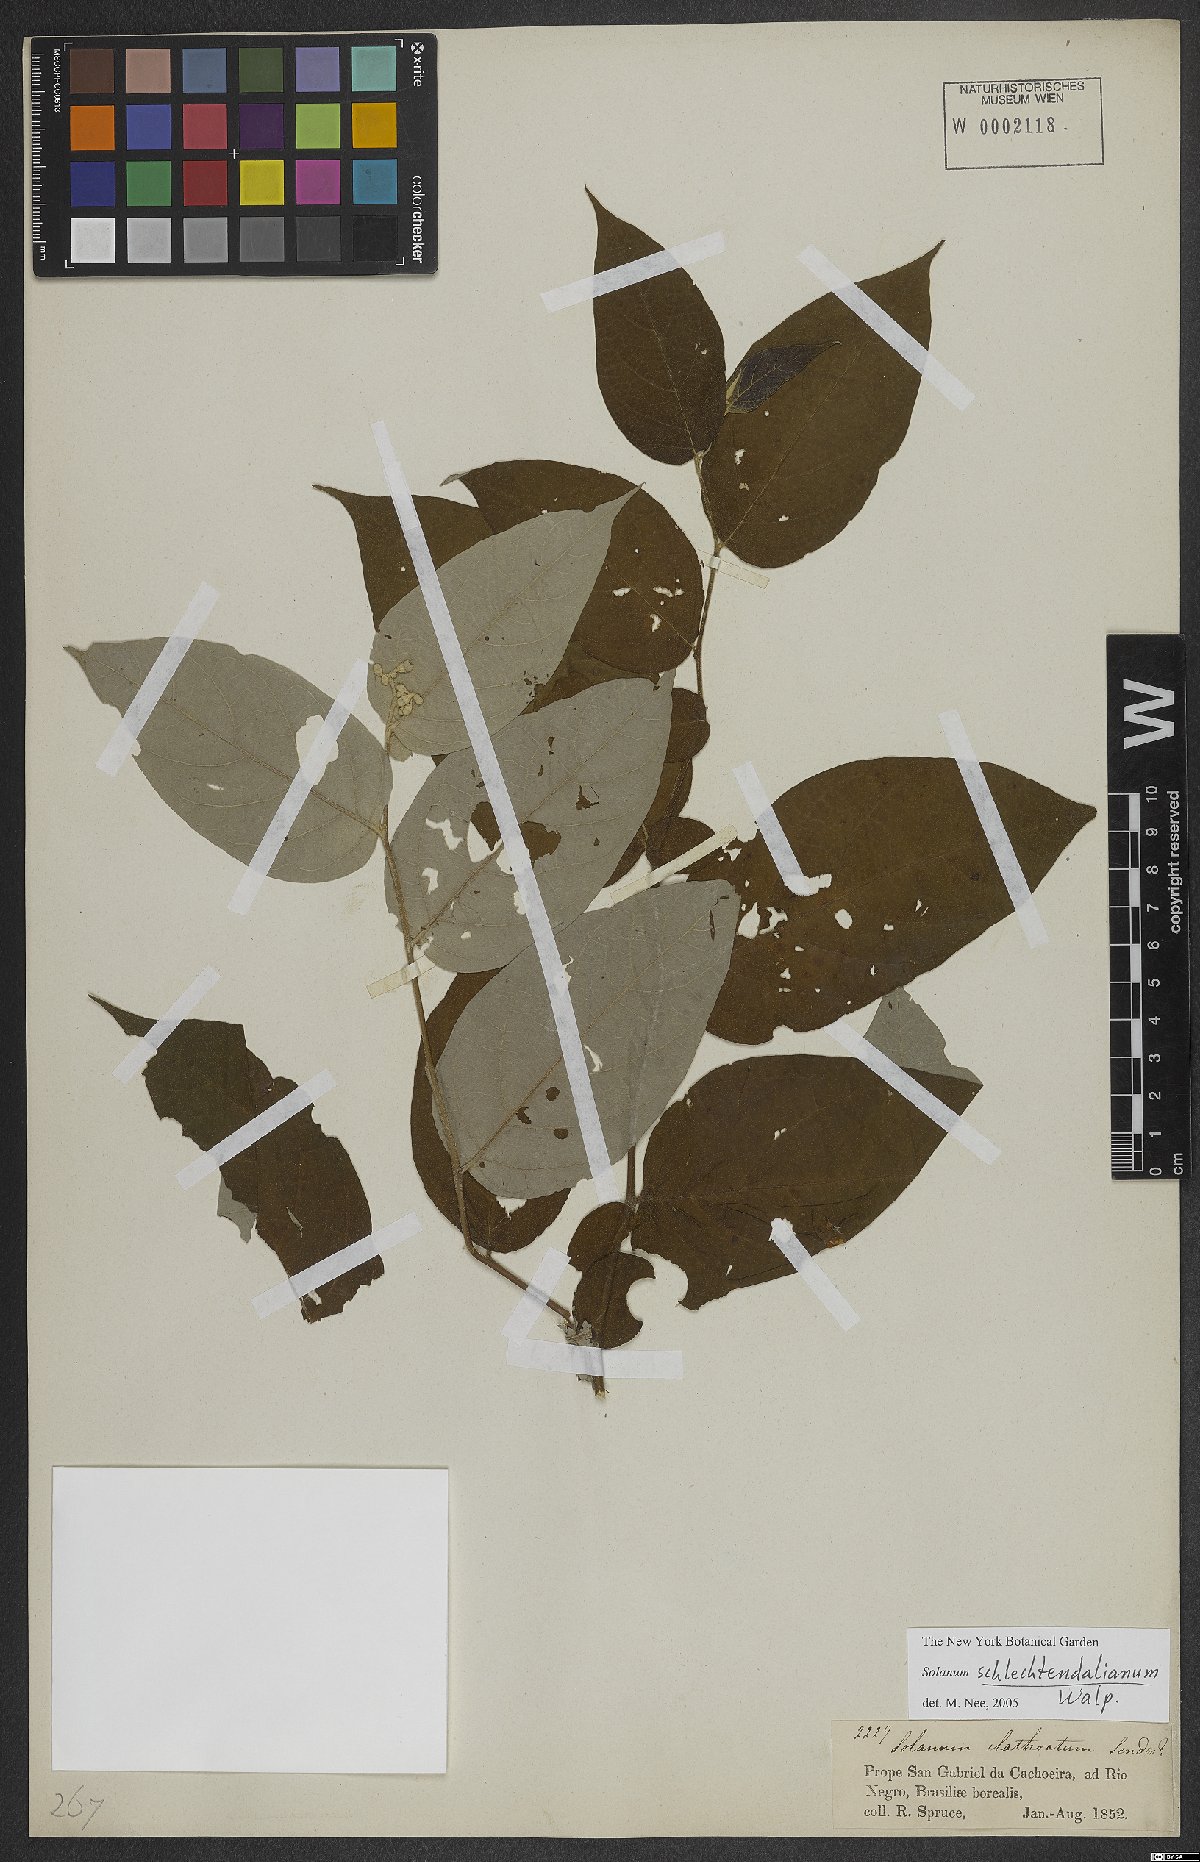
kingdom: Plantae
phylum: Tracheophyta
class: Magnoliopsida
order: Solanales
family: Solanaceae
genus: Solanum
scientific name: Solanum schlechtendalianum
